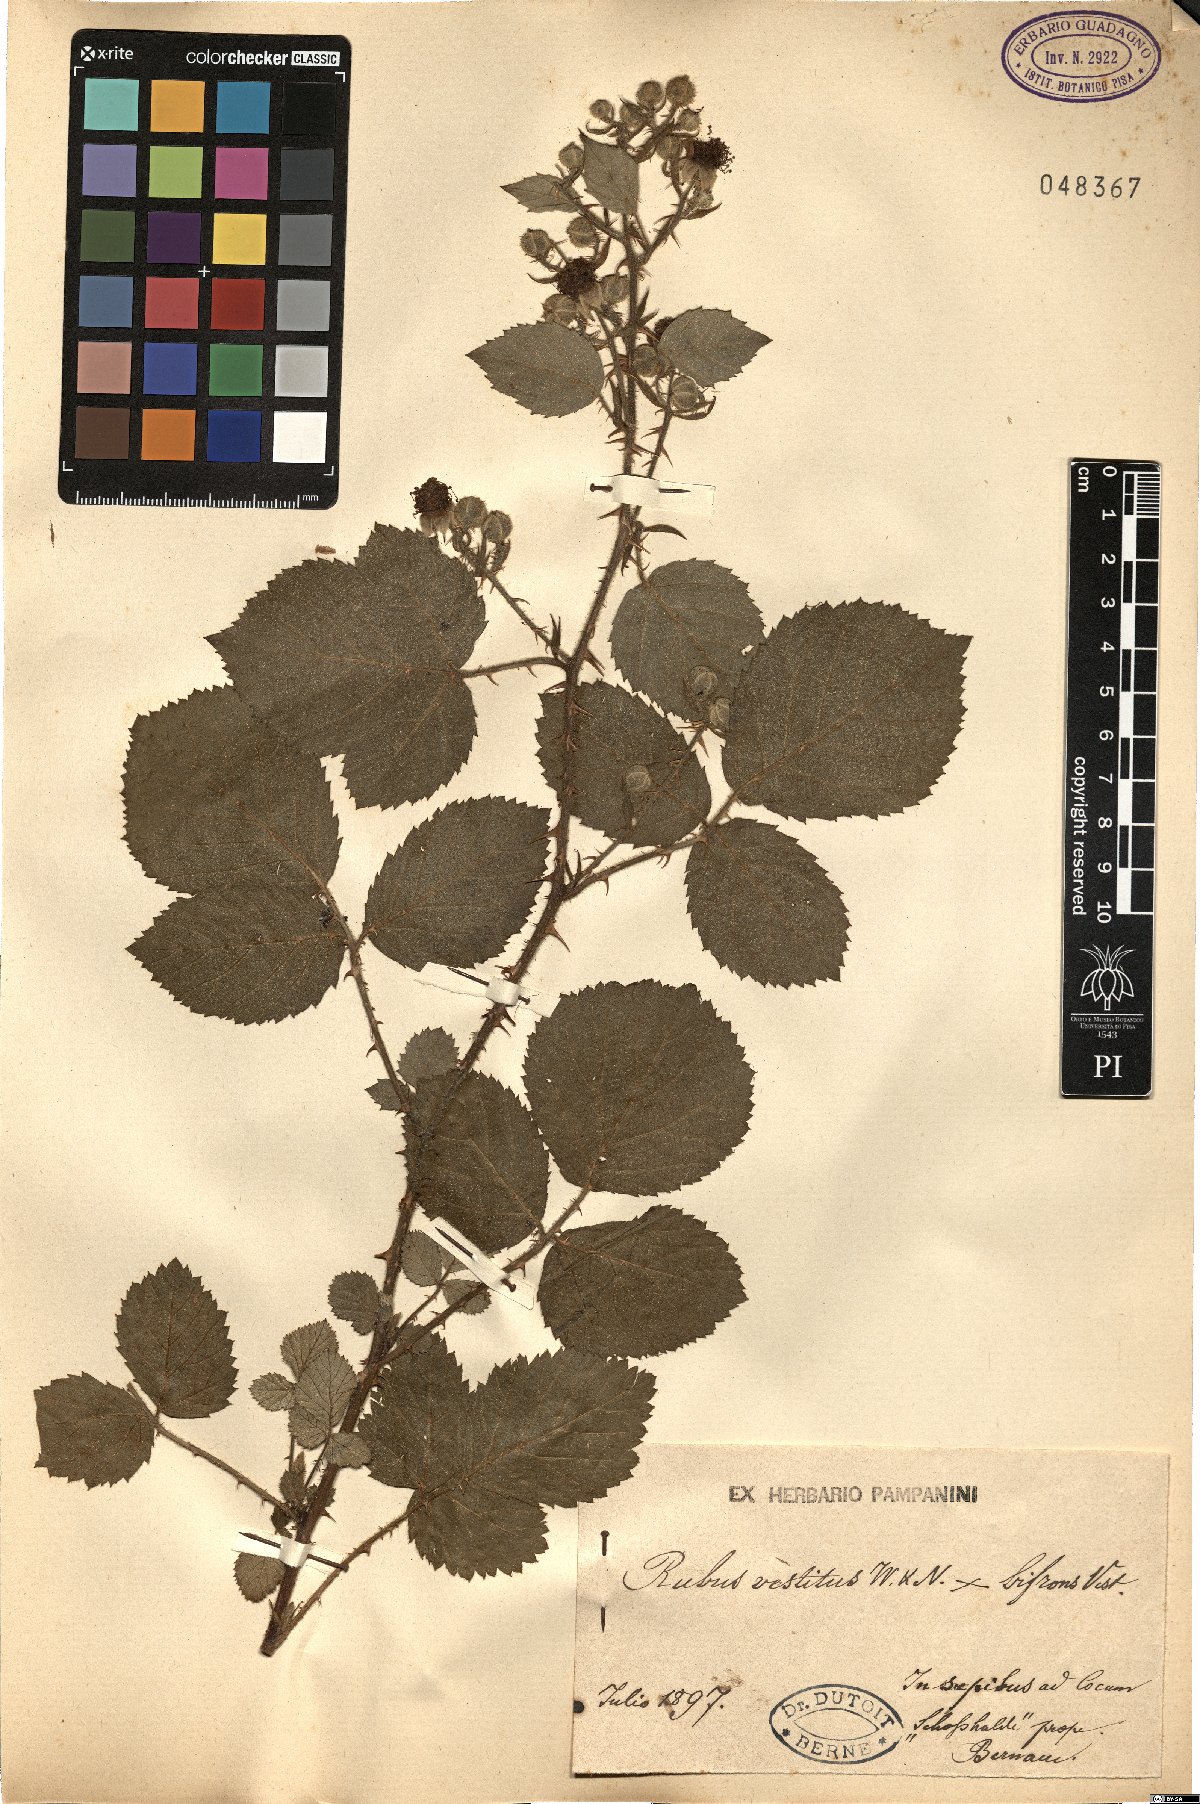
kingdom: Plantae
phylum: Tracheophyta
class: Magnoliopsida
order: Rosales
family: Rosaceae
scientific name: Rosaceae
